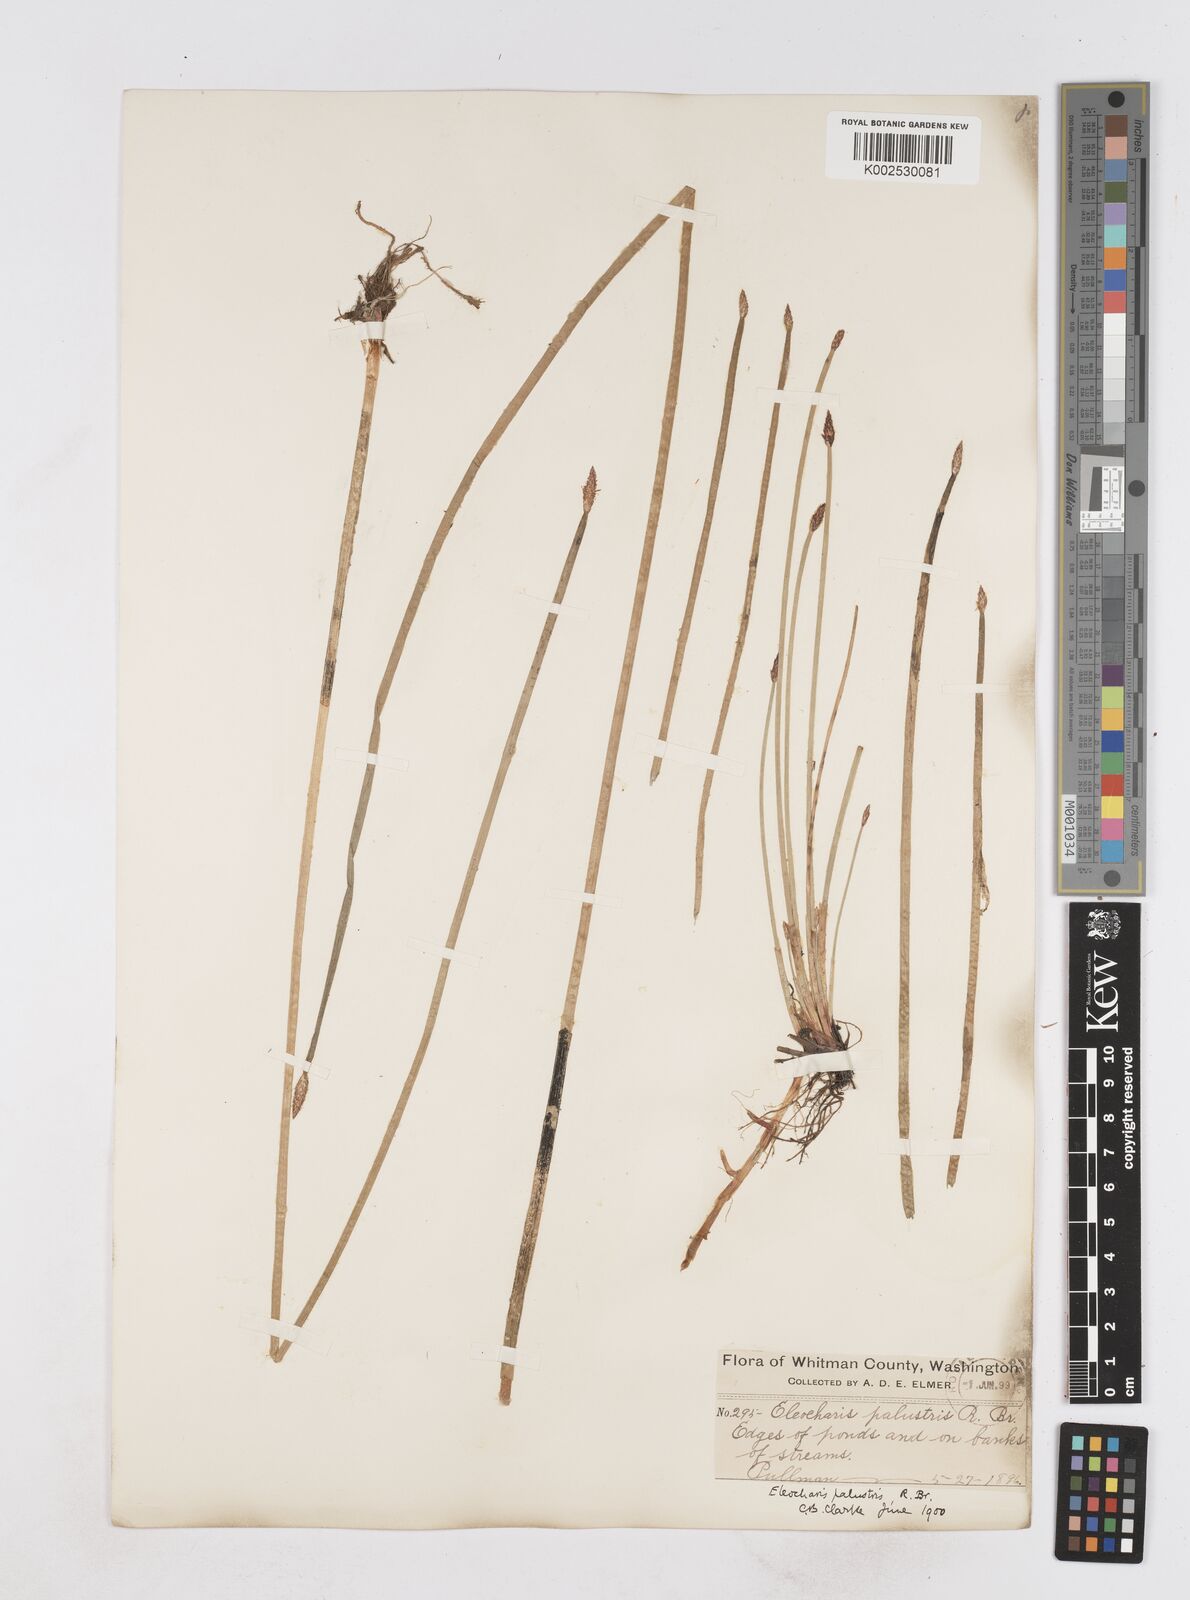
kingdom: Plantae
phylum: Tracheophyta
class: Liliopsida
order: Poales
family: Cyperaceae
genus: Eleocharis
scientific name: Eleocharis palustris
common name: Common spike-rush
